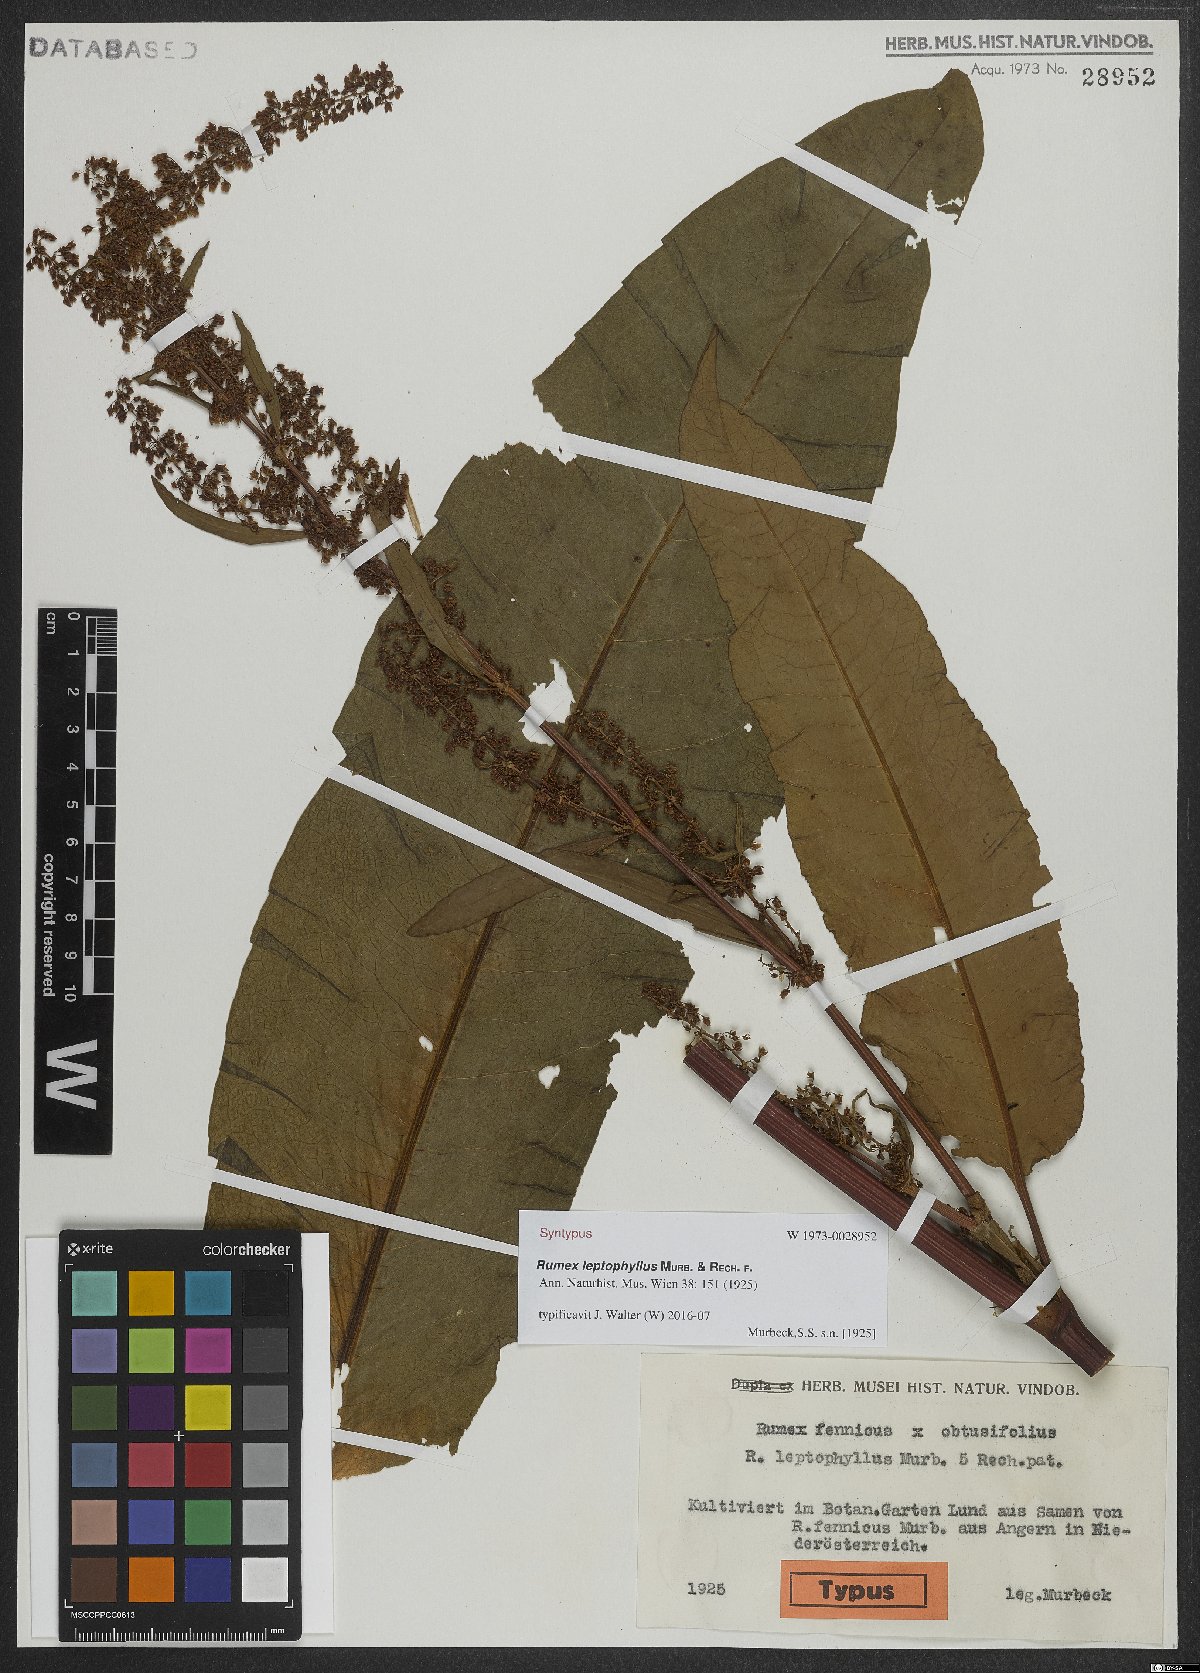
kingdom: Plantae
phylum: Tracheophyta
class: Magnoliopsida
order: Caryophyllales
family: Polygonaceae
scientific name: Polygonaceae
